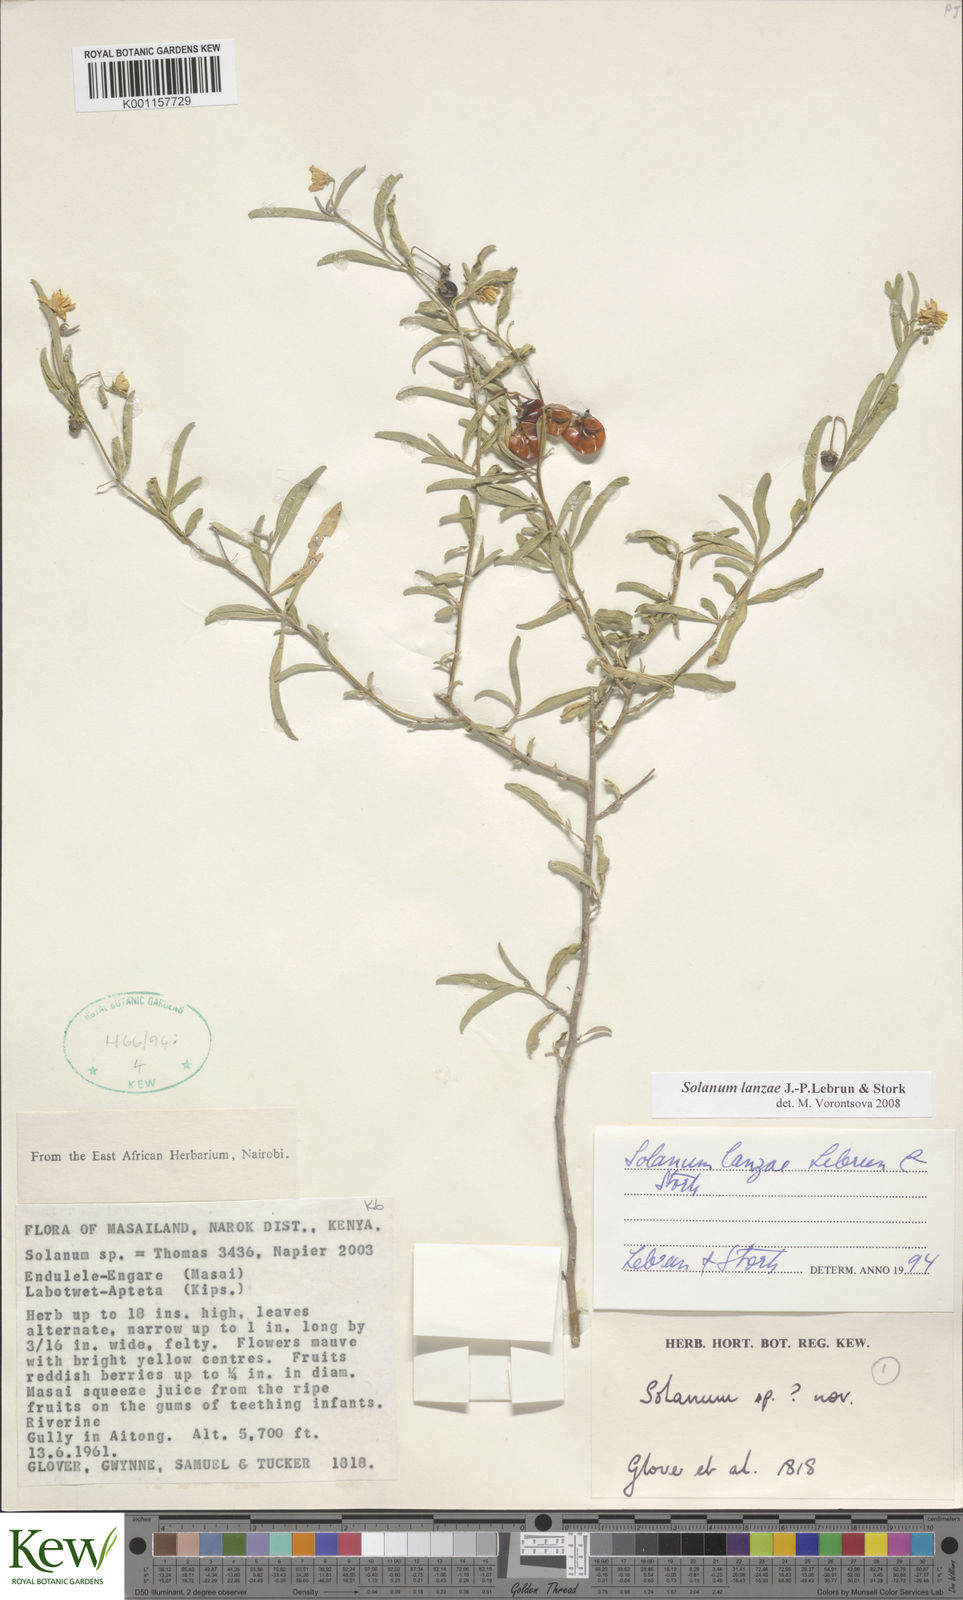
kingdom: Plantae
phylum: Tracheophyta
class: Magnoliopsida
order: Solanales
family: Solanaceae
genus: Solanum
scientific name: Solanum lanzae
